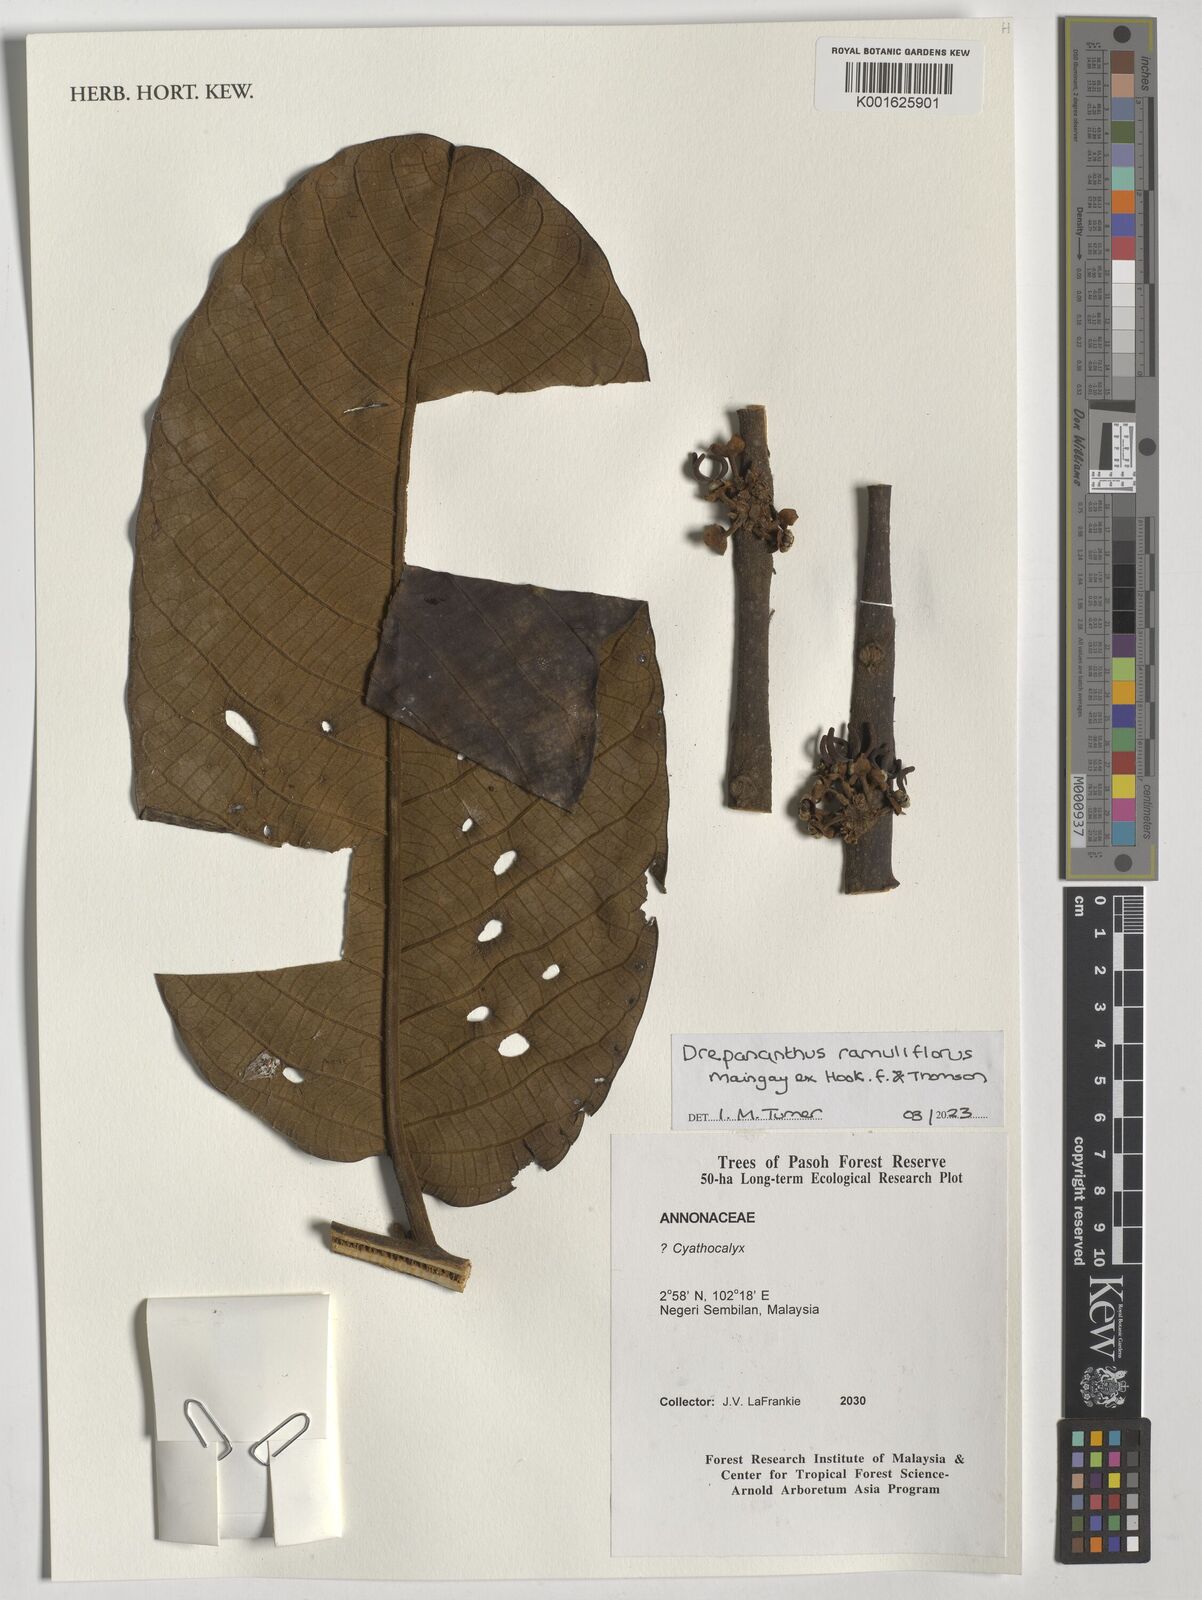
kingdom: Plantae
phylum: Tracheophyta
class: Magnoliopsida
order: Magnoliales
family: Annonaceae
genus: Drepananthus
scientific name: Drepananthus ramuliflorus
